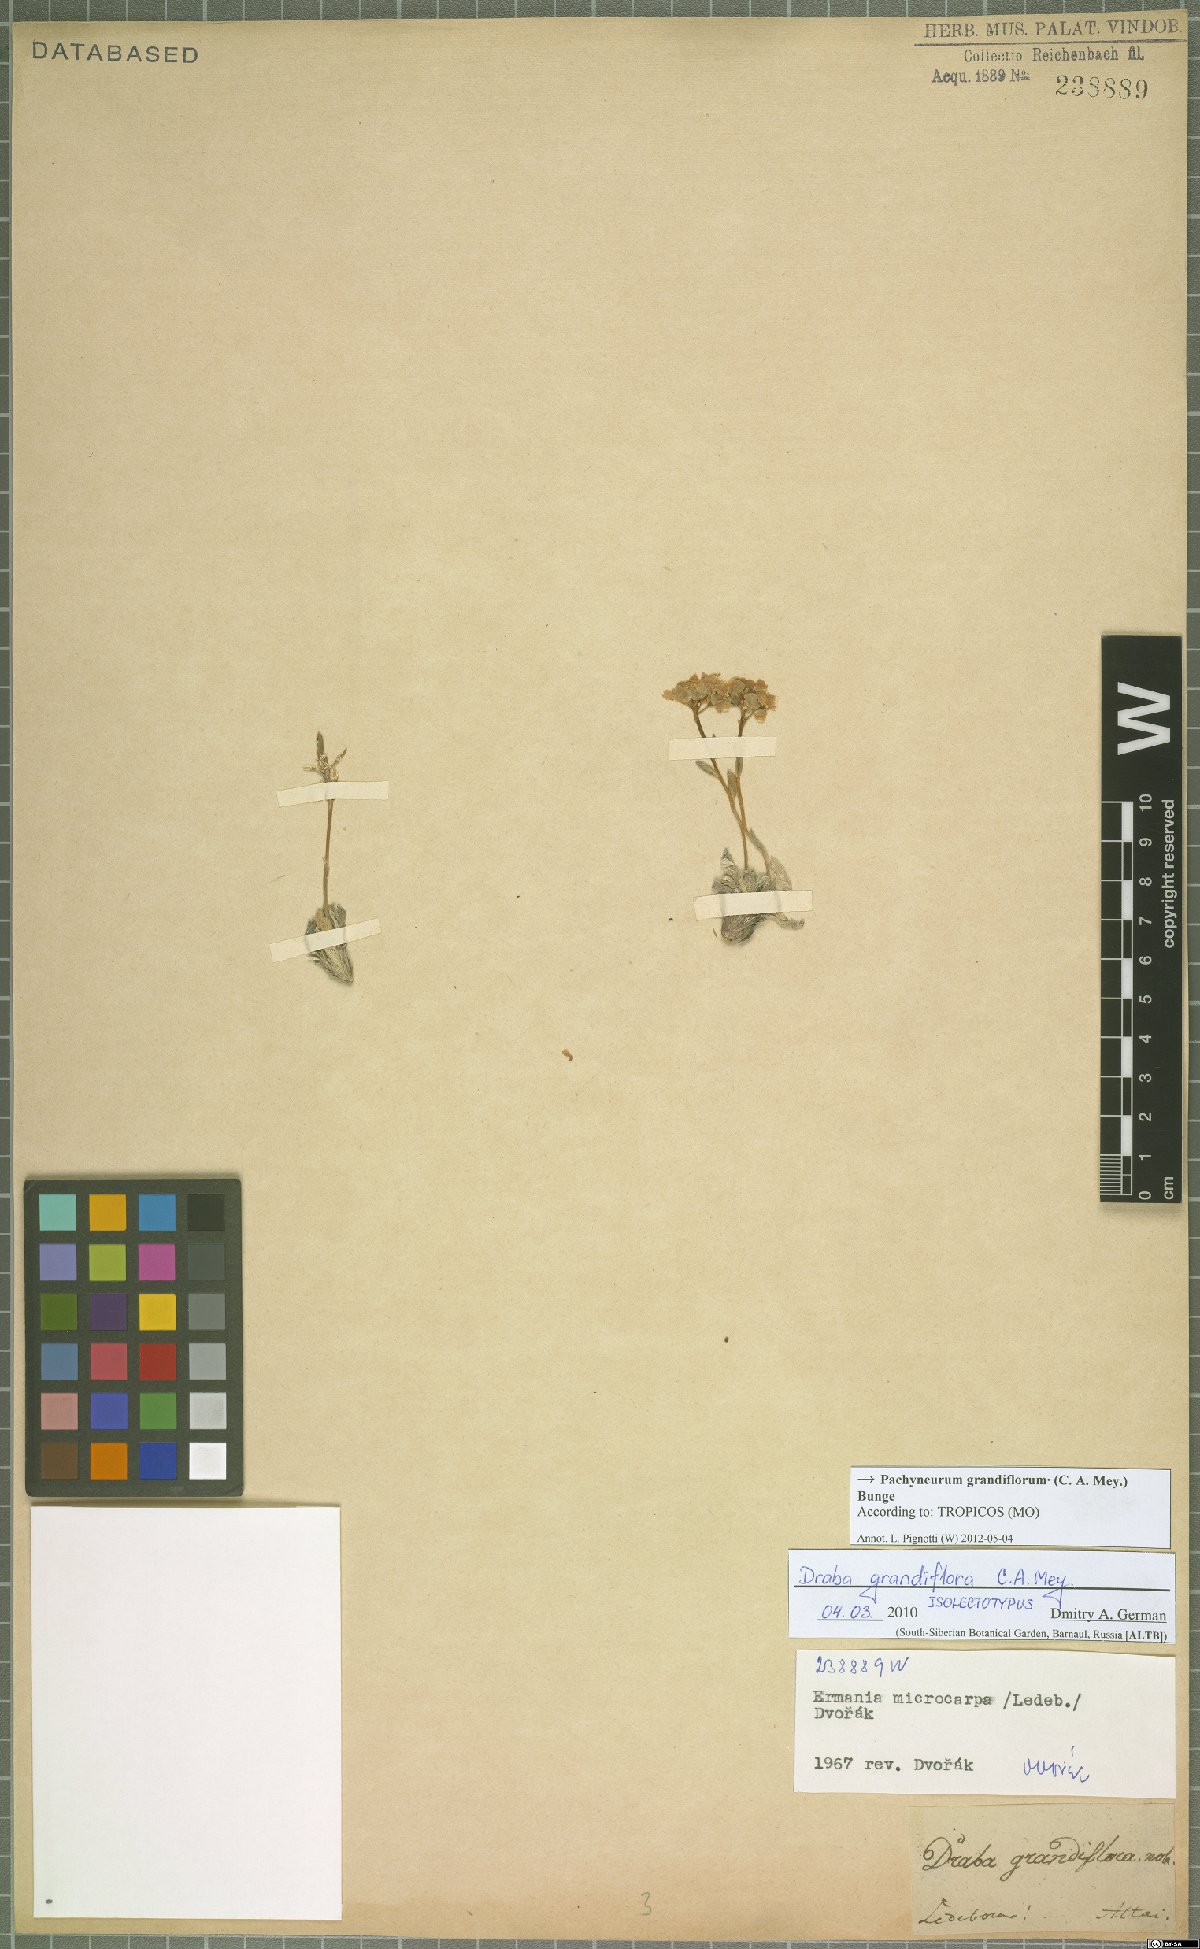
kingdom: Plantae
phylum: Tracheophyta
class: Magnoliopsida
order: Brassicales
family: Brassicaceae
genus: Pachyneurum
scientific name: Pachyneurum grandiflorum
